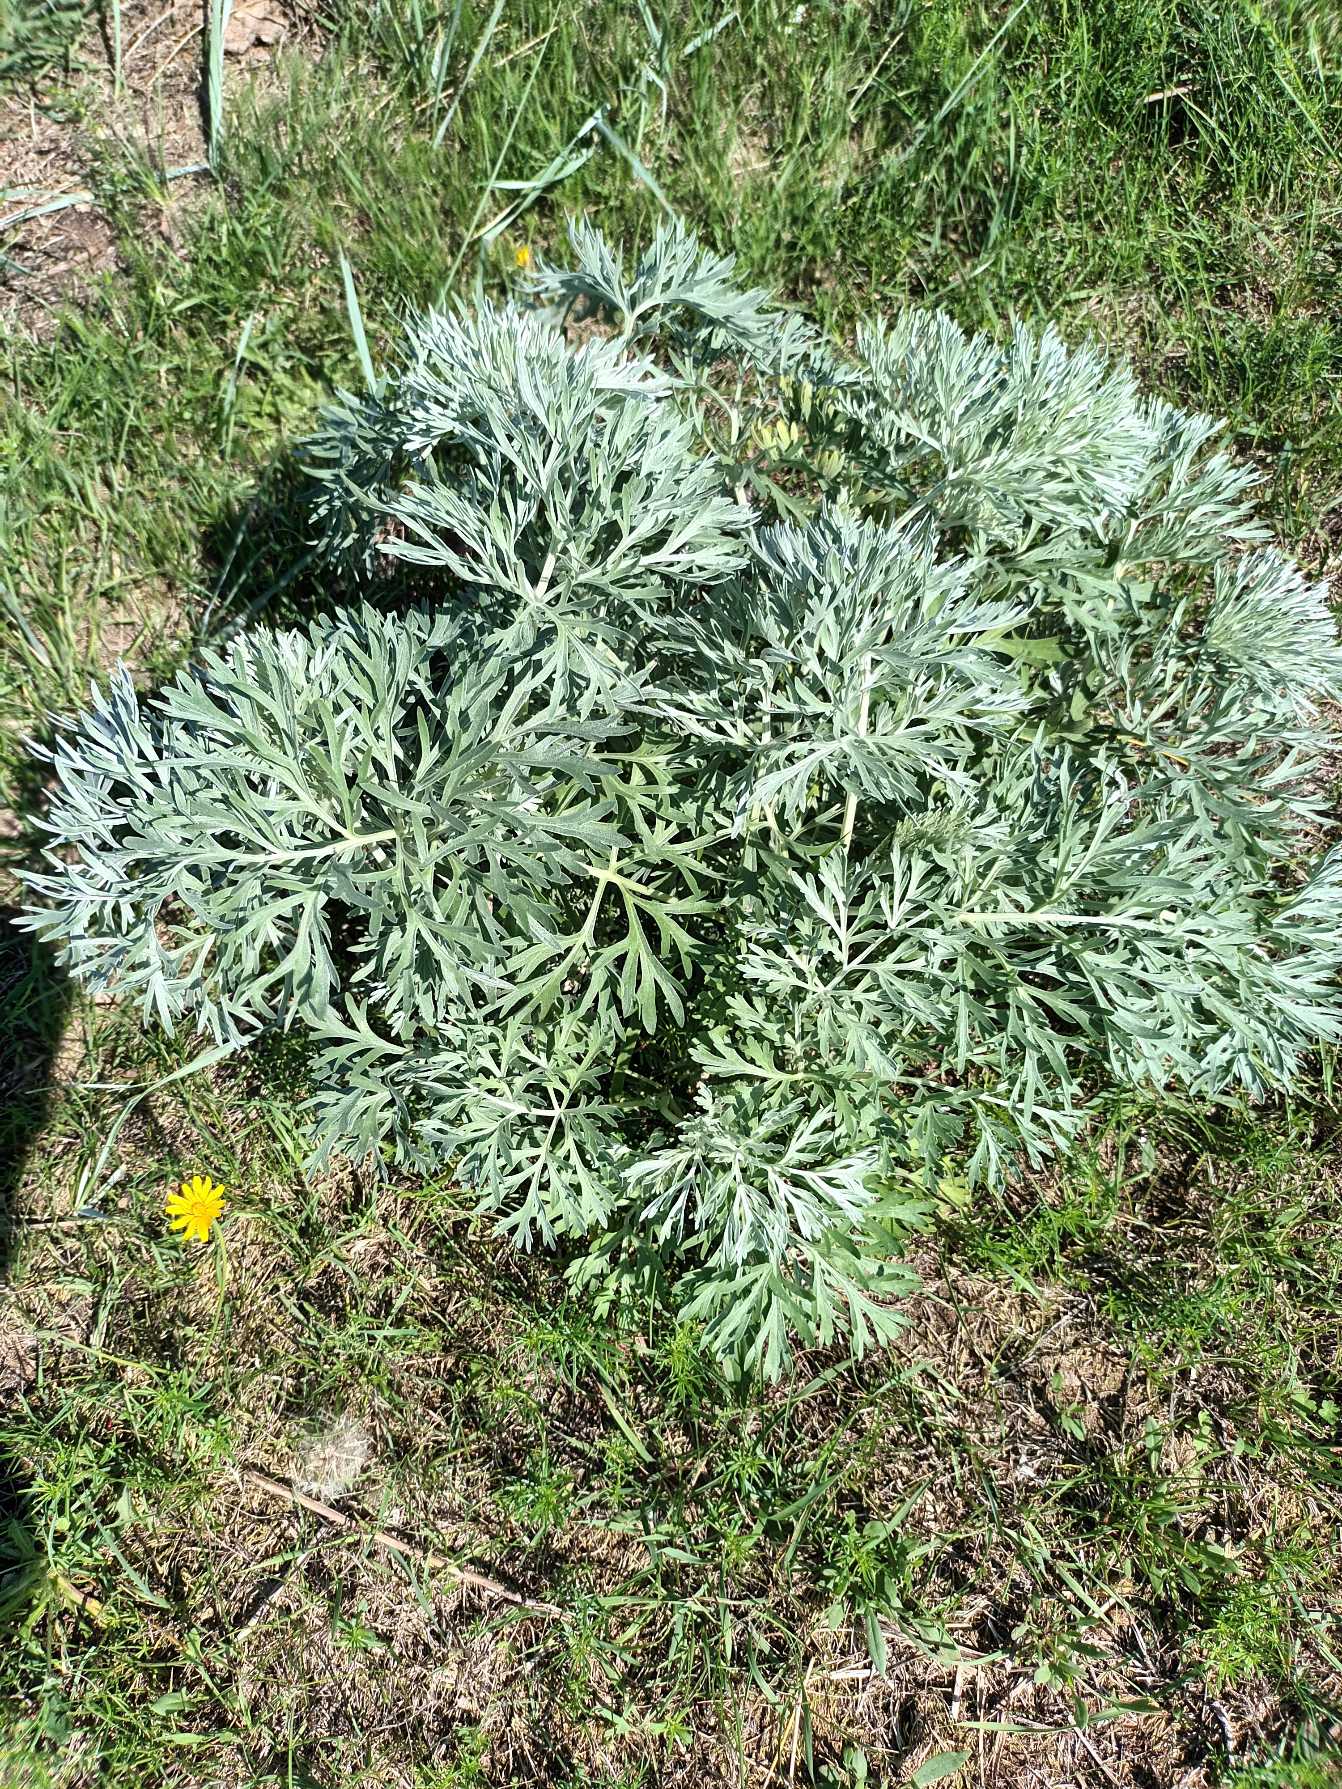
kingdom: Plantae
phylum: Tracheophyta
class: Magnoliopsida
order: Asterales
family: Asteraceae
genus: Artemisia
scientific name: Artemisia absinthium
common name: Havemalurt
